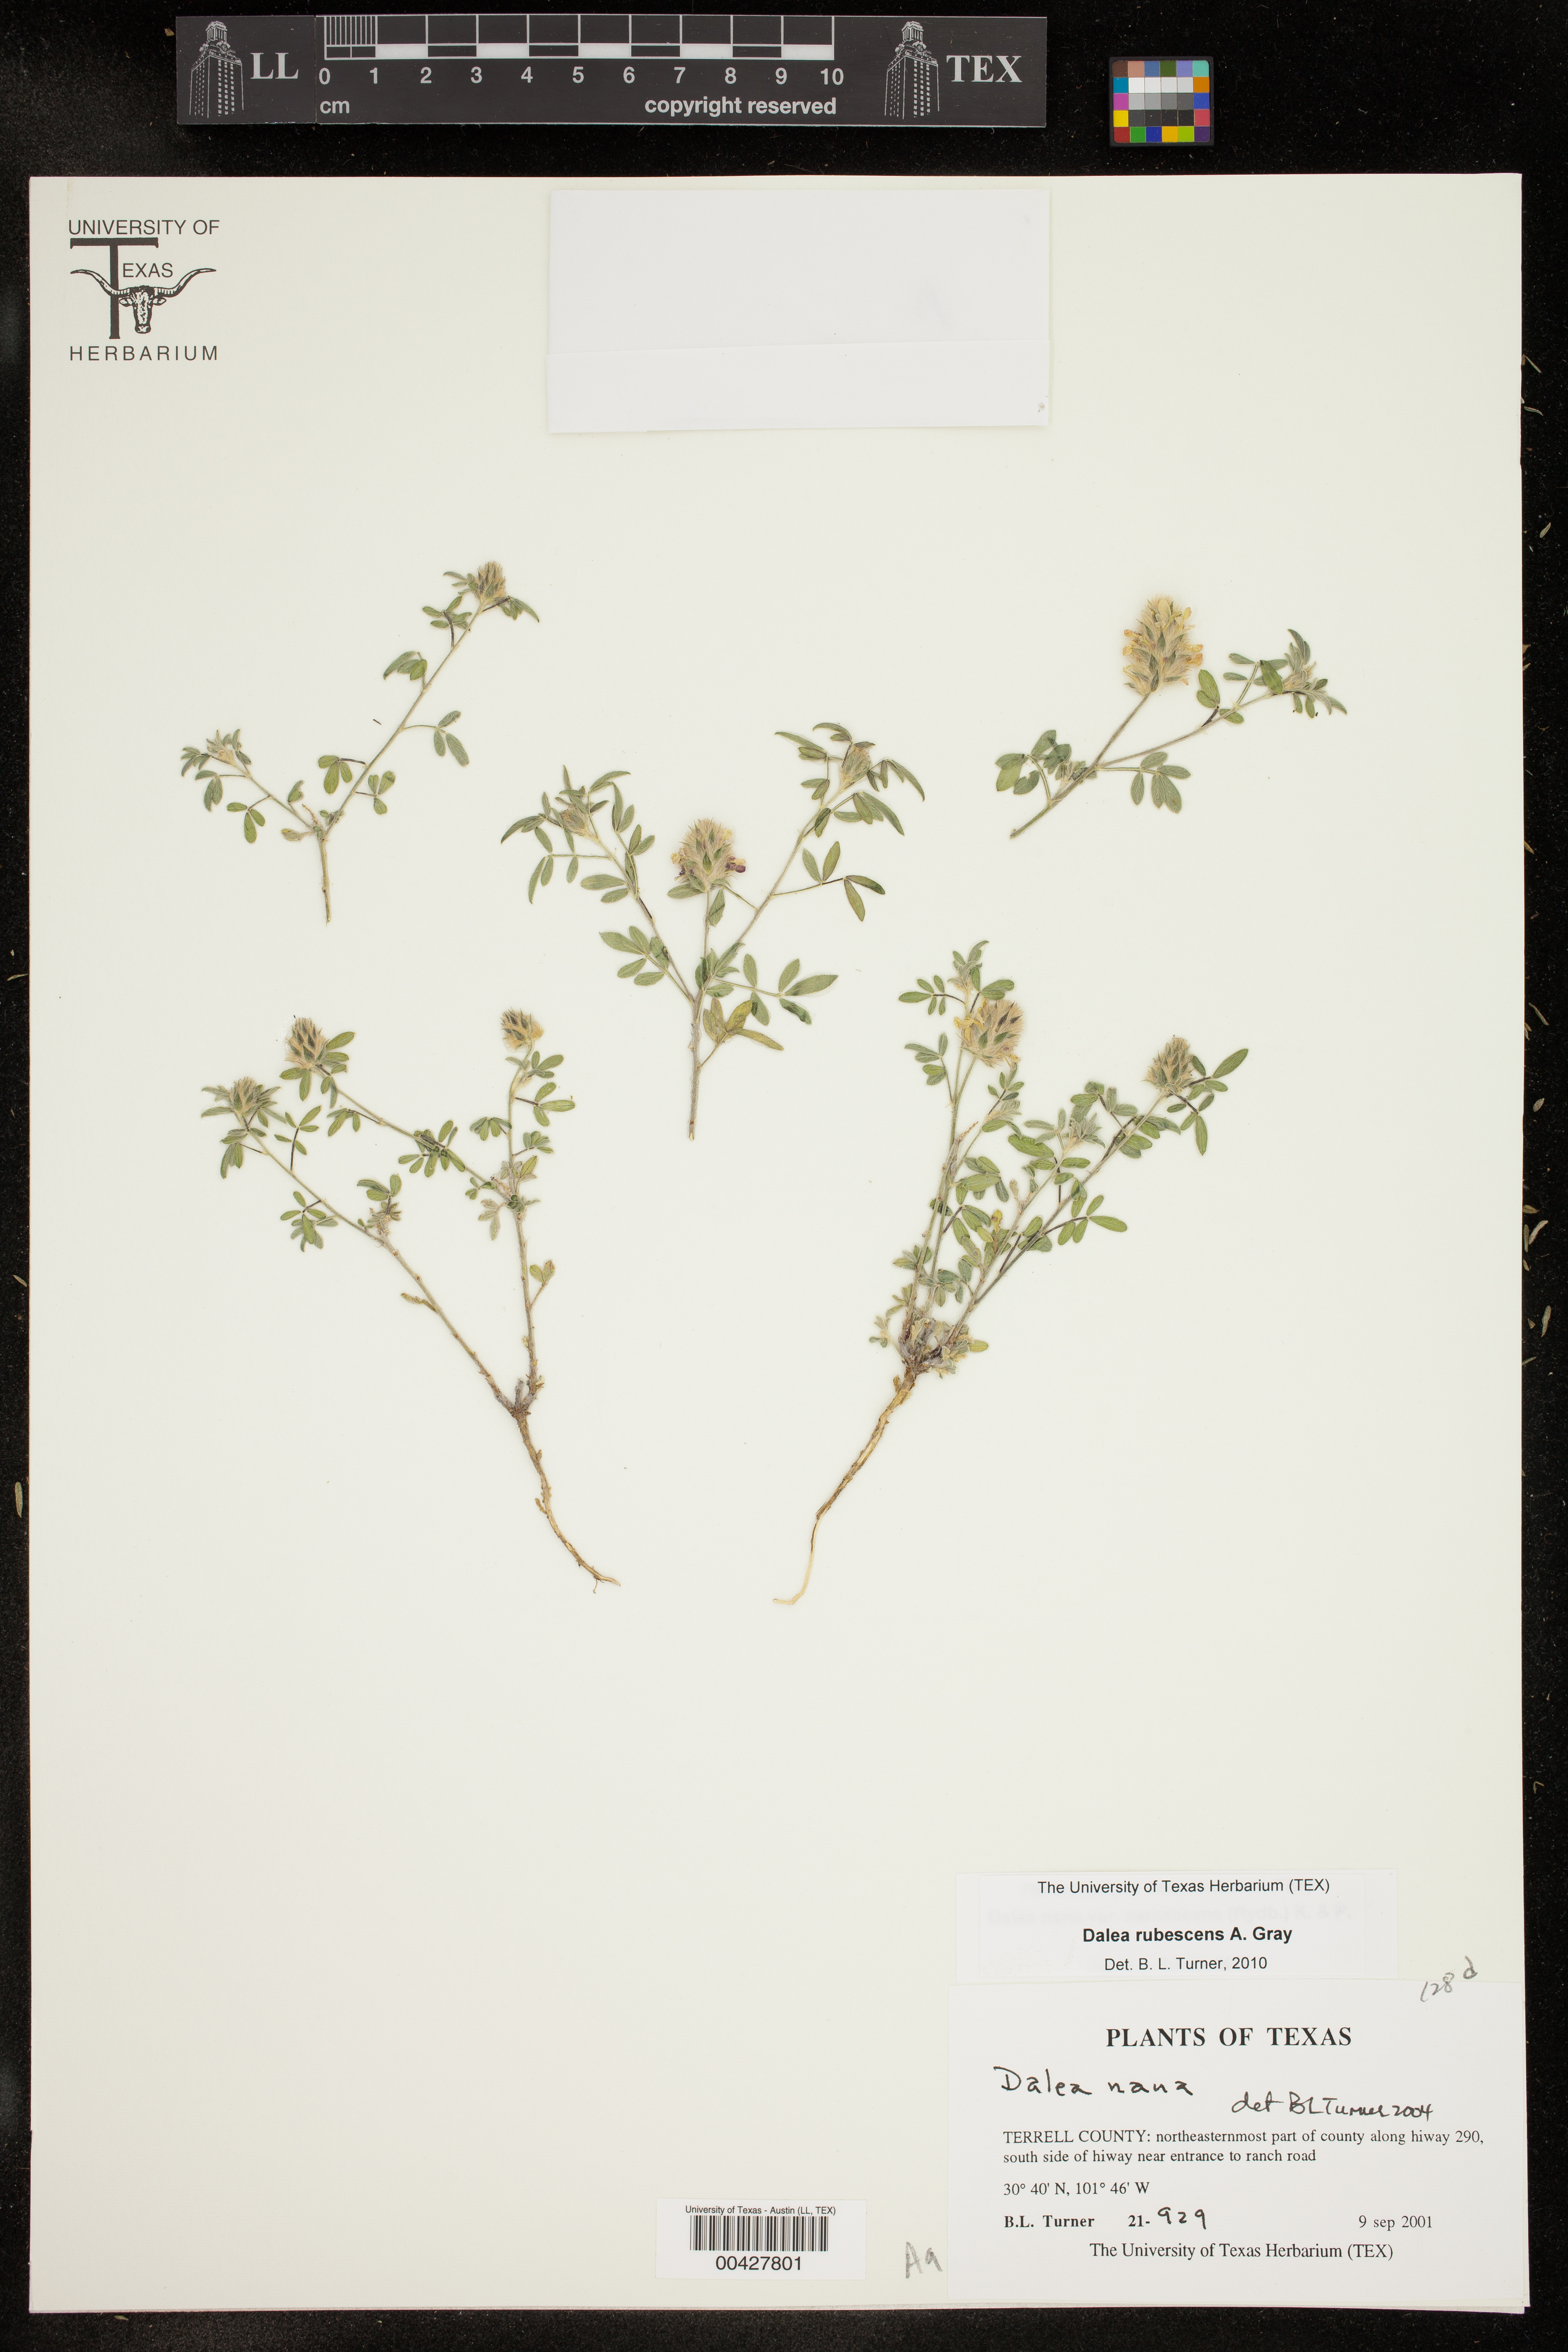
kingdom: Plantae
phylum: Tracheophyta
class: Magnoliopsida
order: Fabales
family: Fabaceae
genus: Dalea
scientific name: Dalea rubescens
